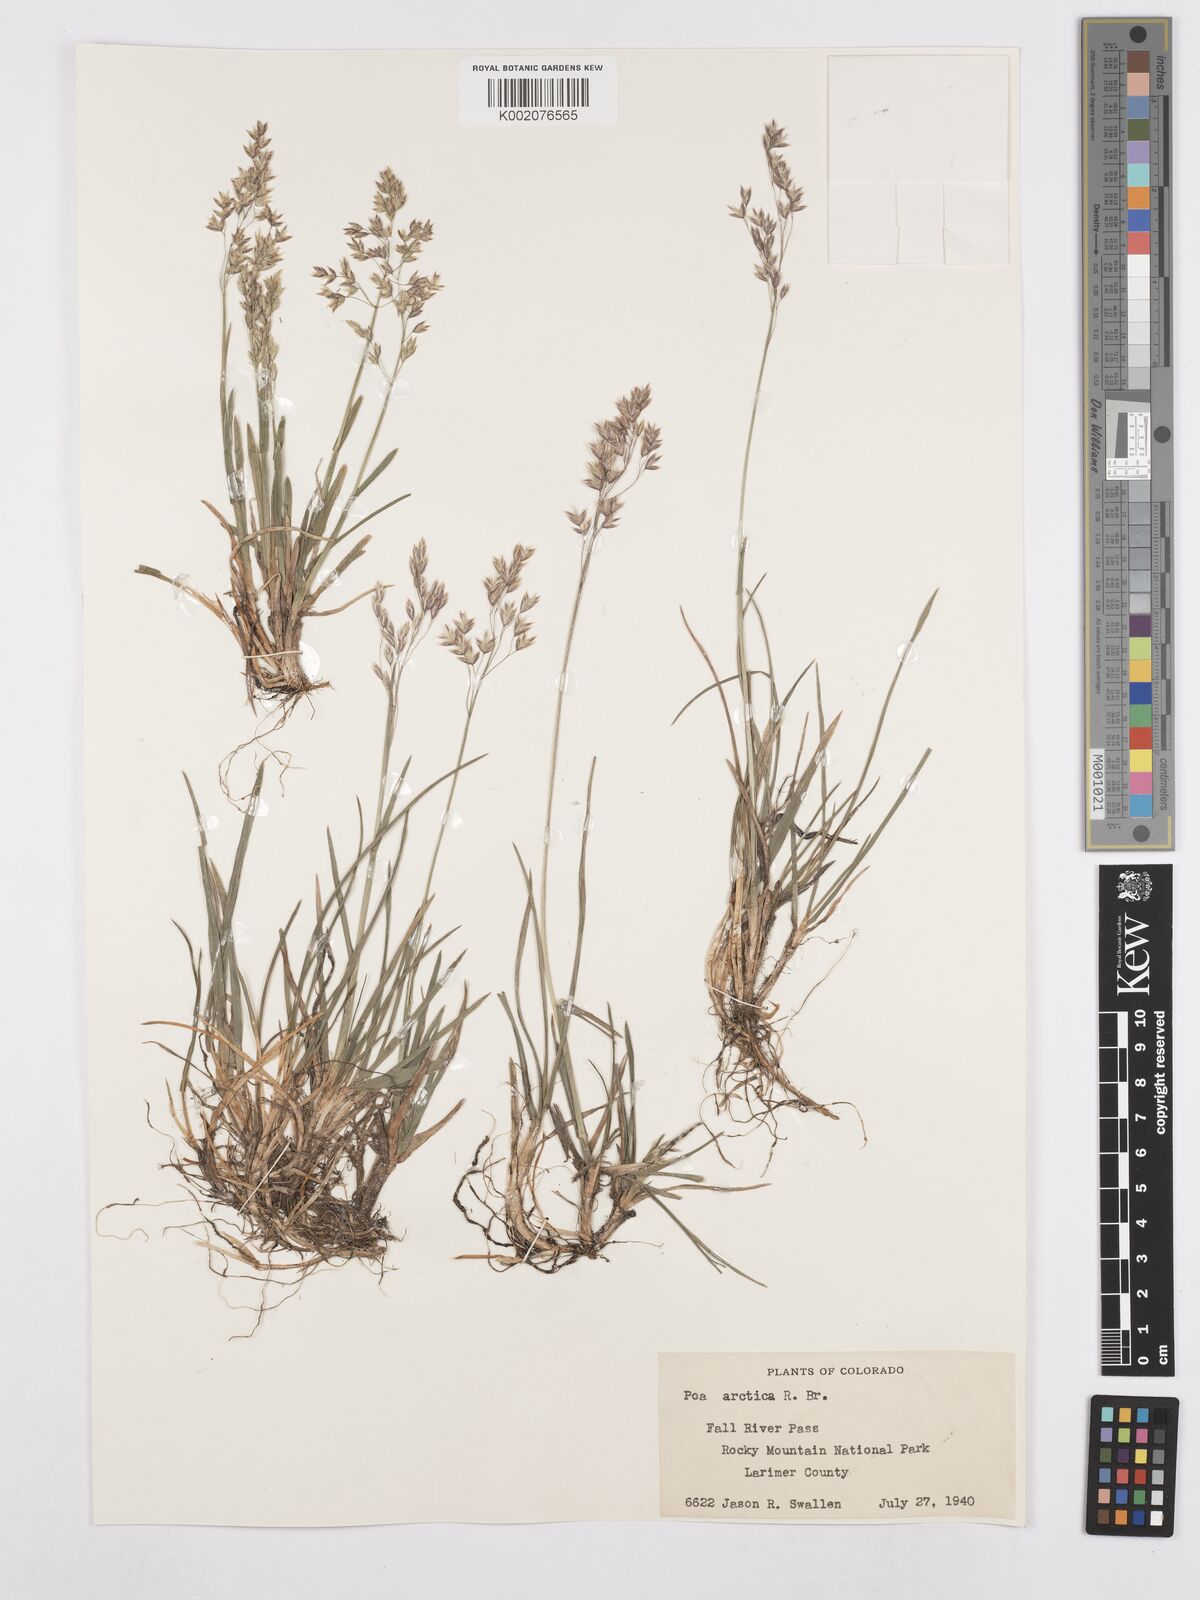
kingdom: Plantae
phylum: Tracheophyta
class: Liliopsida
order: Poales
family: Poaceae
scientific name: Poaceae
